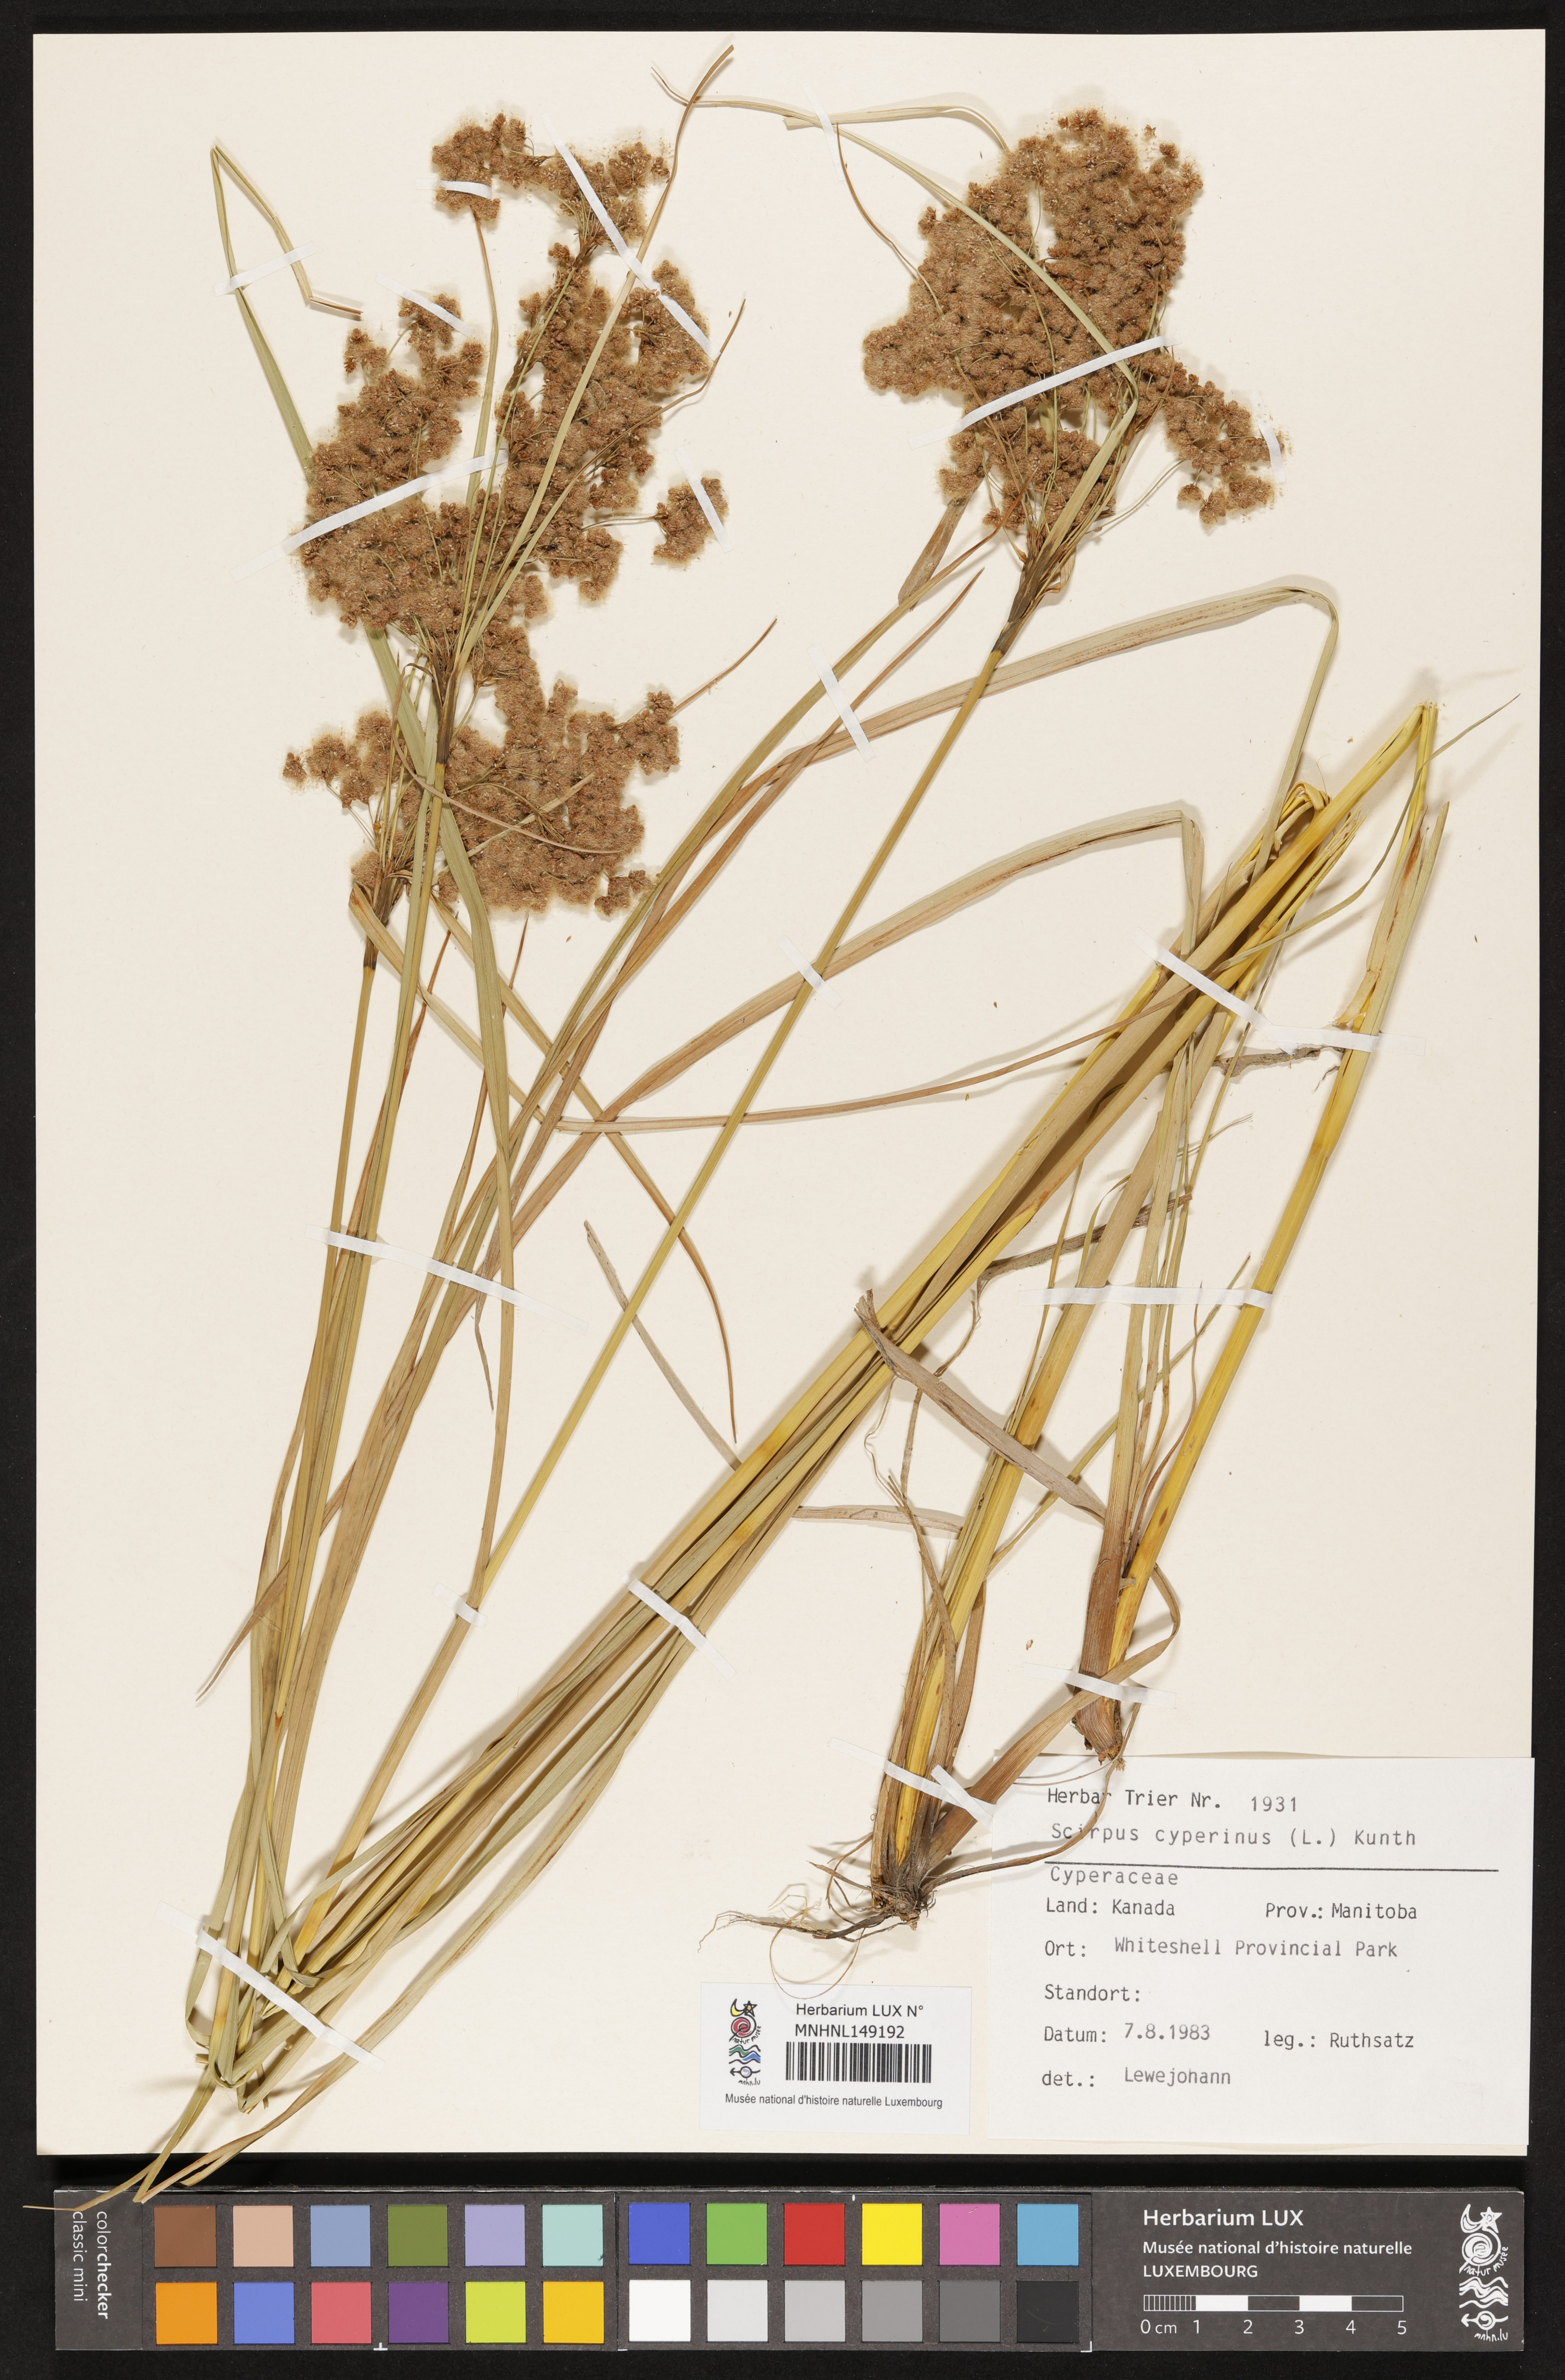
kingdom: Plantae
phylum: Tracheophyta
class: Liliopsida
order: Poales
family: Cyperaceae
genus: Scirpus
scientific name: Scirpus cyperinus
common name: Black-sheathed bulrush
